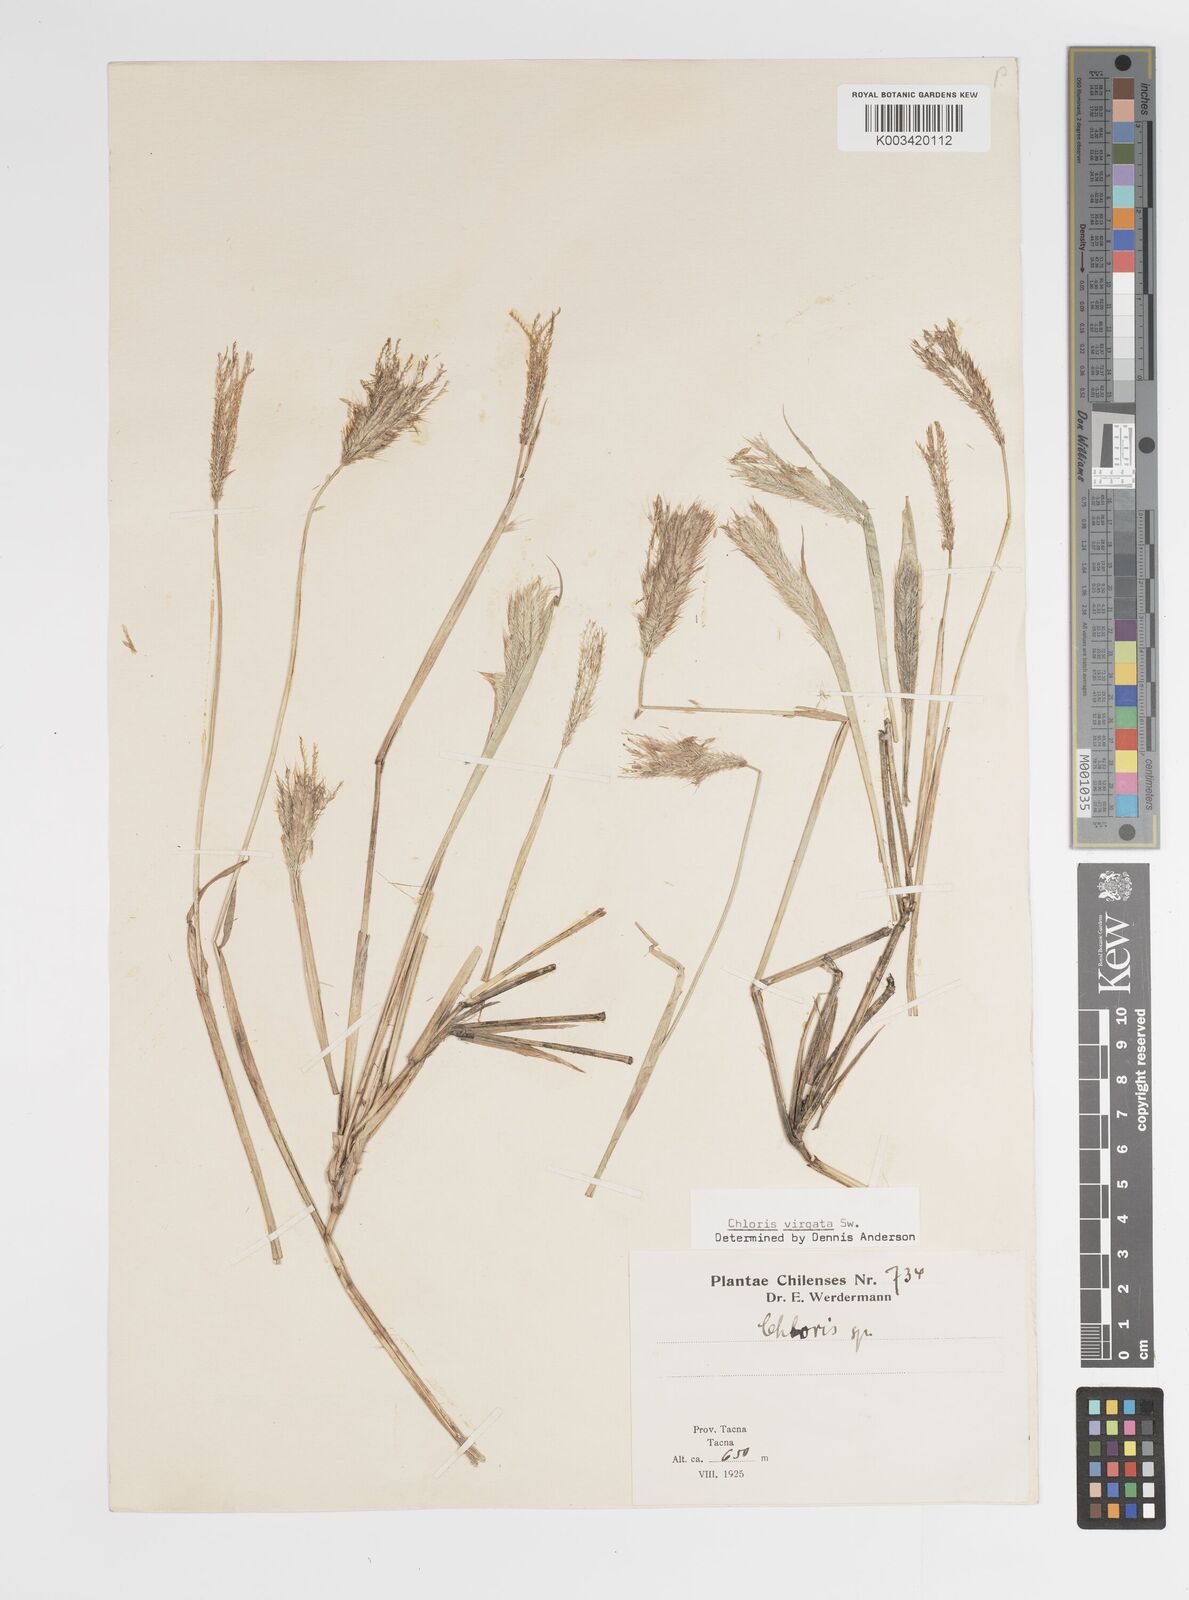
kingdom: Plantae
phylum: Tracheophyta
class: Liliopsida
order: Poales
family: Poaceae
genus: Chloris
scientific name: Chloris virgata
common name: Feathery rhodes-grass
